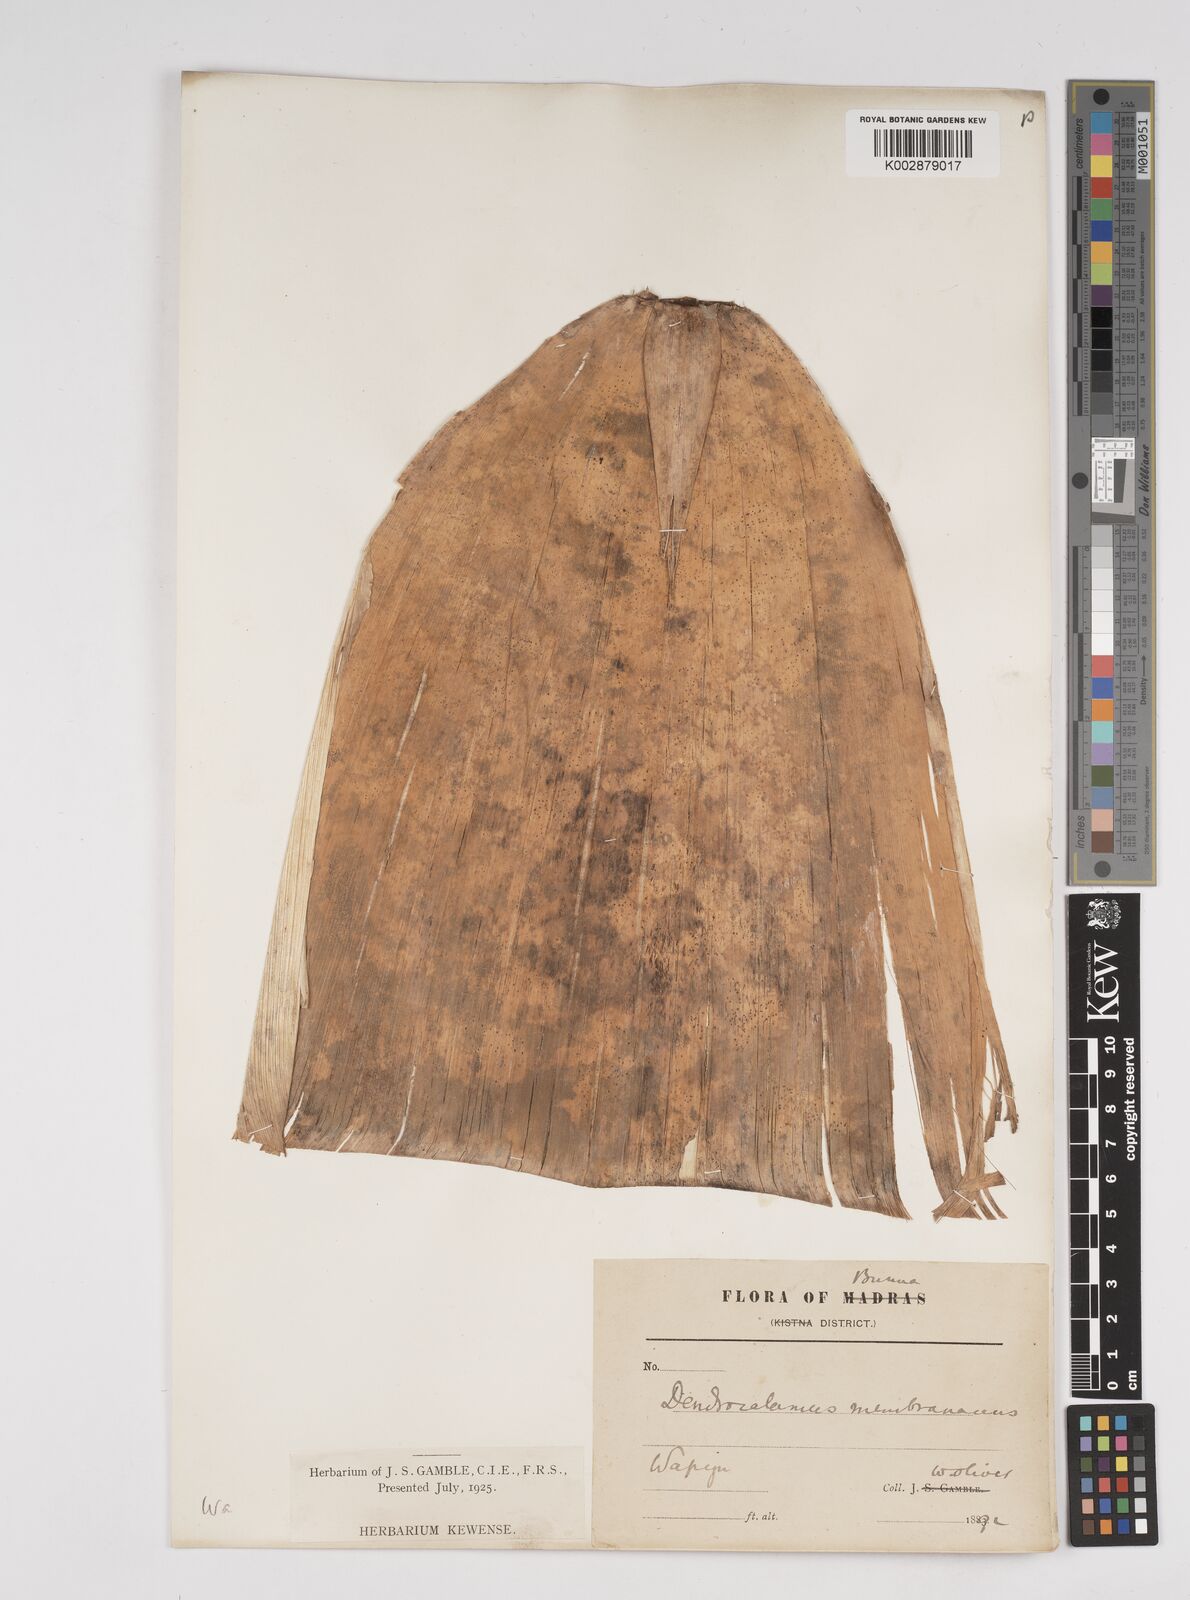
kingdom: Plantae
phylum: Tracheophyta
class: Liliopsida
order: Poales
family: Poaceae
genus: Dendrocalamus
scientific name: Dendrocalamus membranaceus
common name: White bamboo
